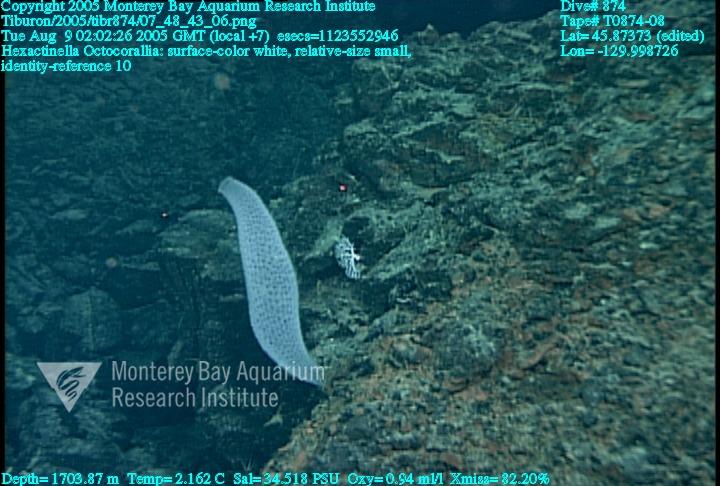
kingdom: Animalia
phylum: Porifera
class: Hexactinellida
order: Sceptrulophora
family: Tretodictyidae
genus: Hexactinella
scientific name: Hexactinella
